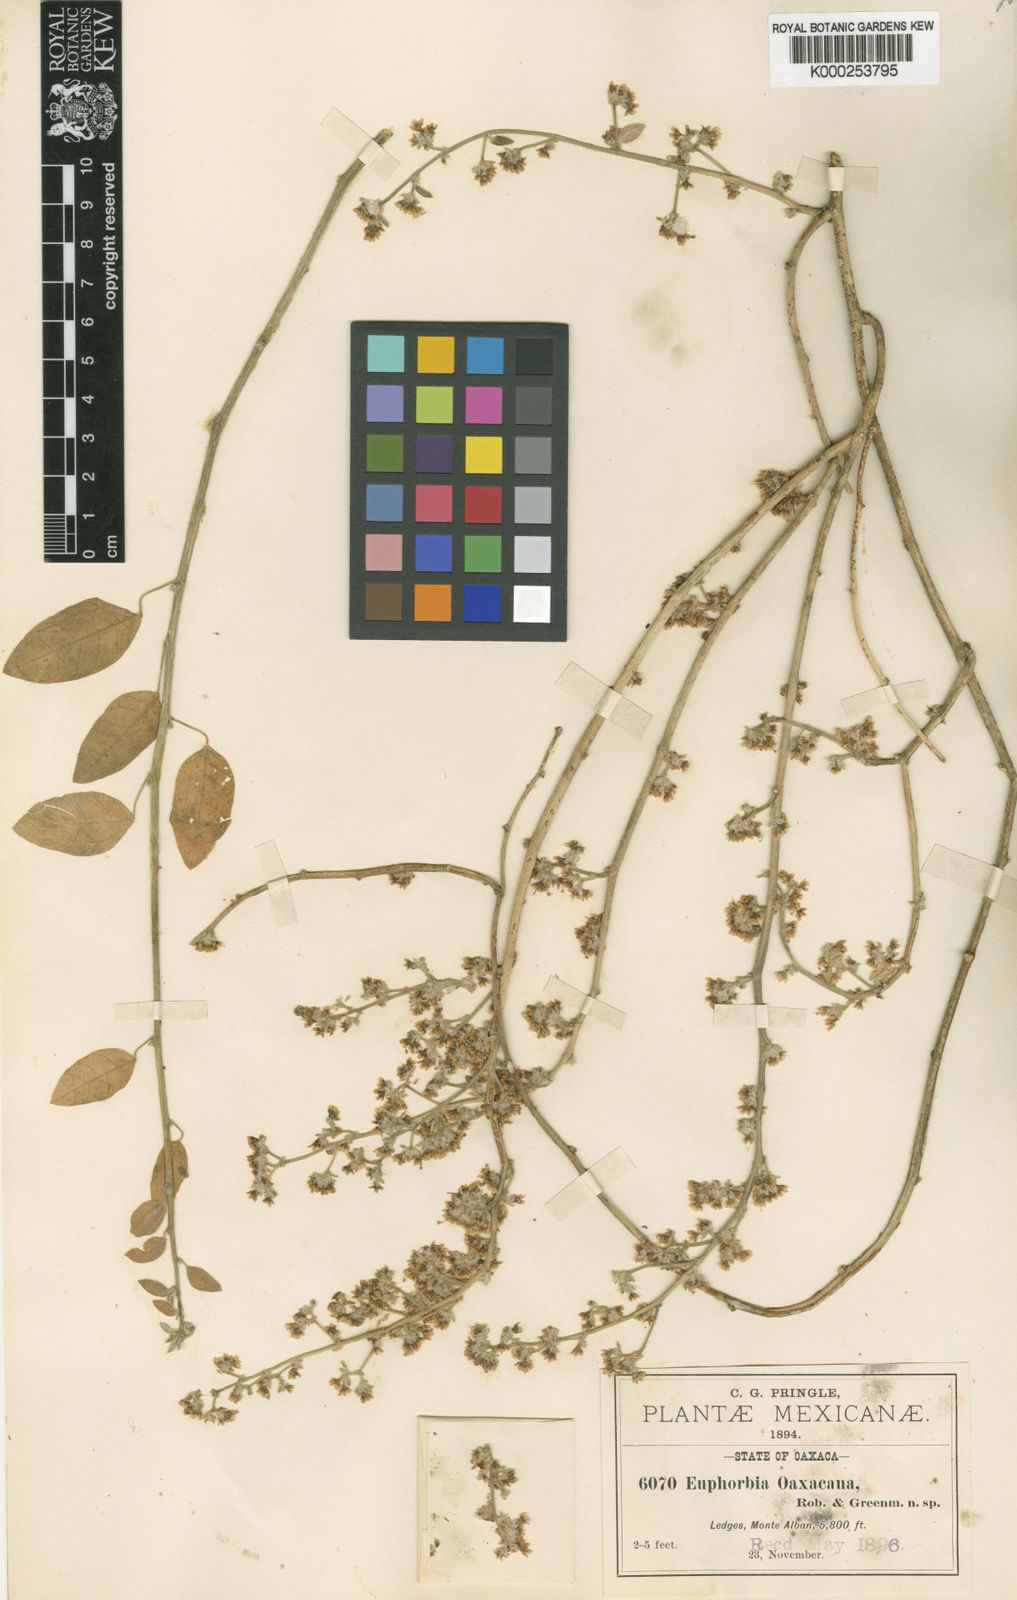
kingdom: Plantae
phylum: Tracheophyta
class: Magnoliopsida
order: Malpighiales
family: Euphorbiaceae
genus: Euphorbia
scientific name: Euphorbia oaxacana
